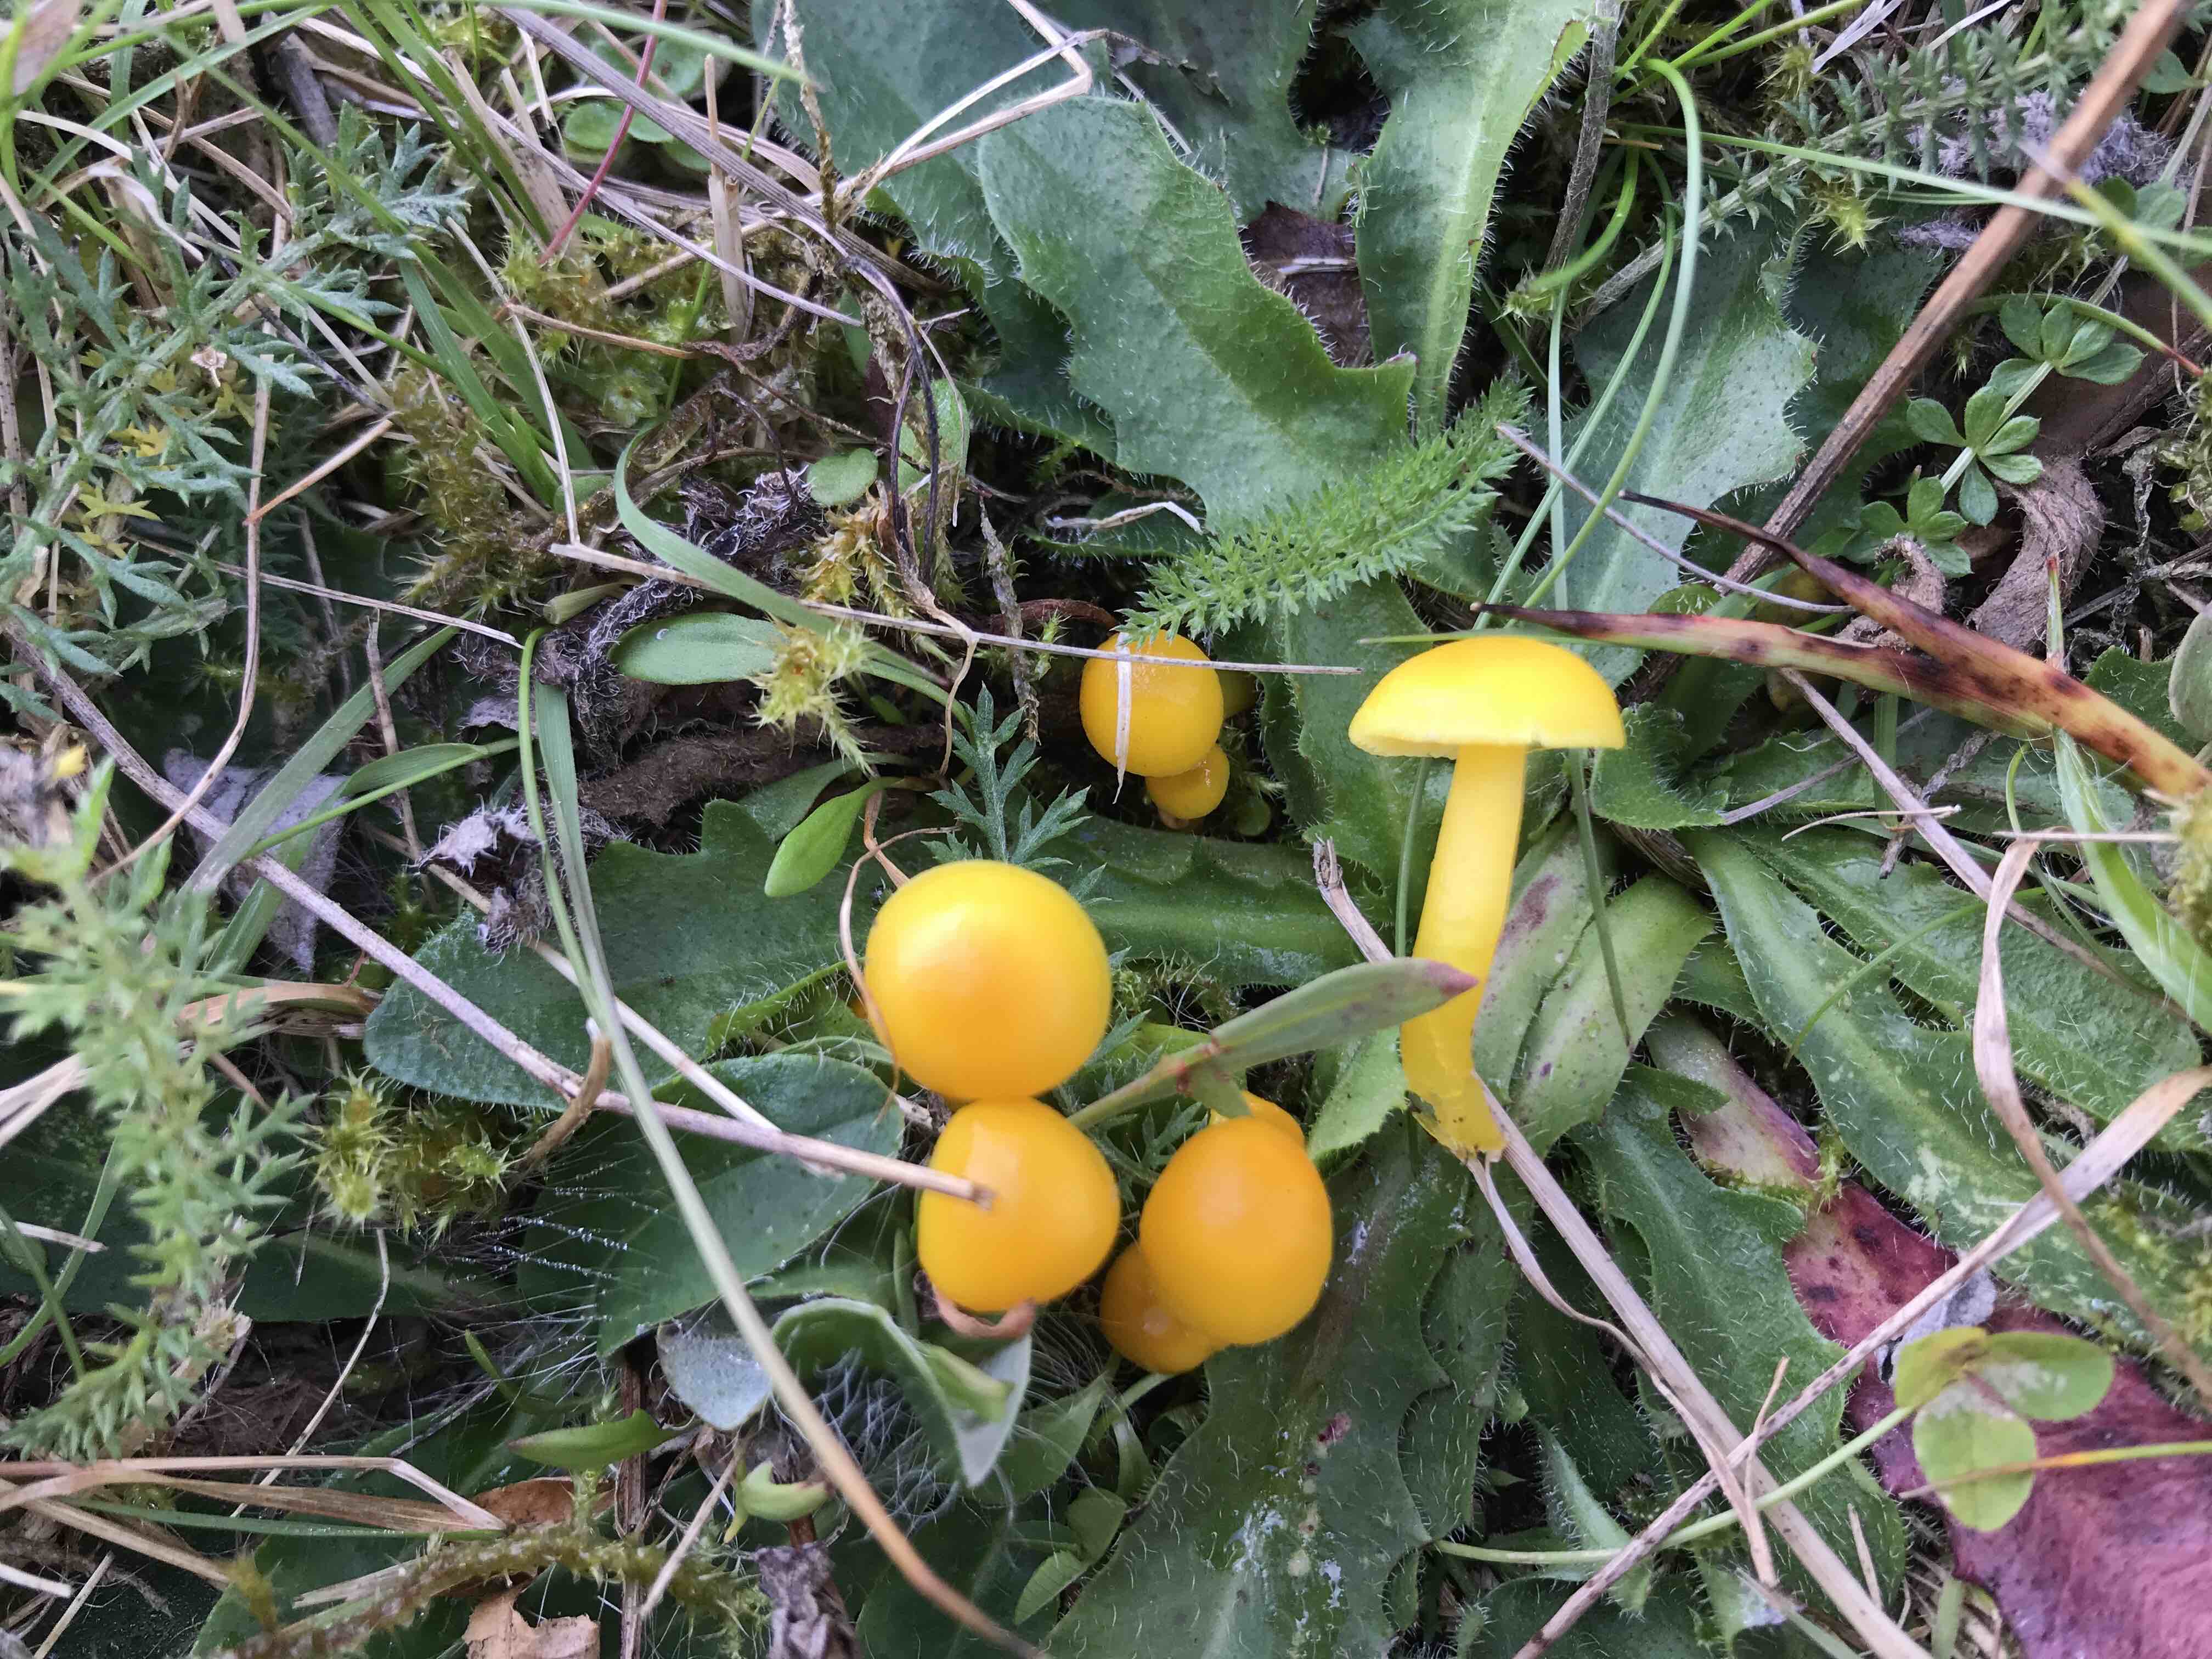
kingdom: Fungi
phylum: Basidiomycota
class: Agaricomycetes
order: Agaricales
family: Hygrophoraceae
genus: Hygrocybe
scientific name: Hygrocybe ceracea
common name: voksgul vokshat
